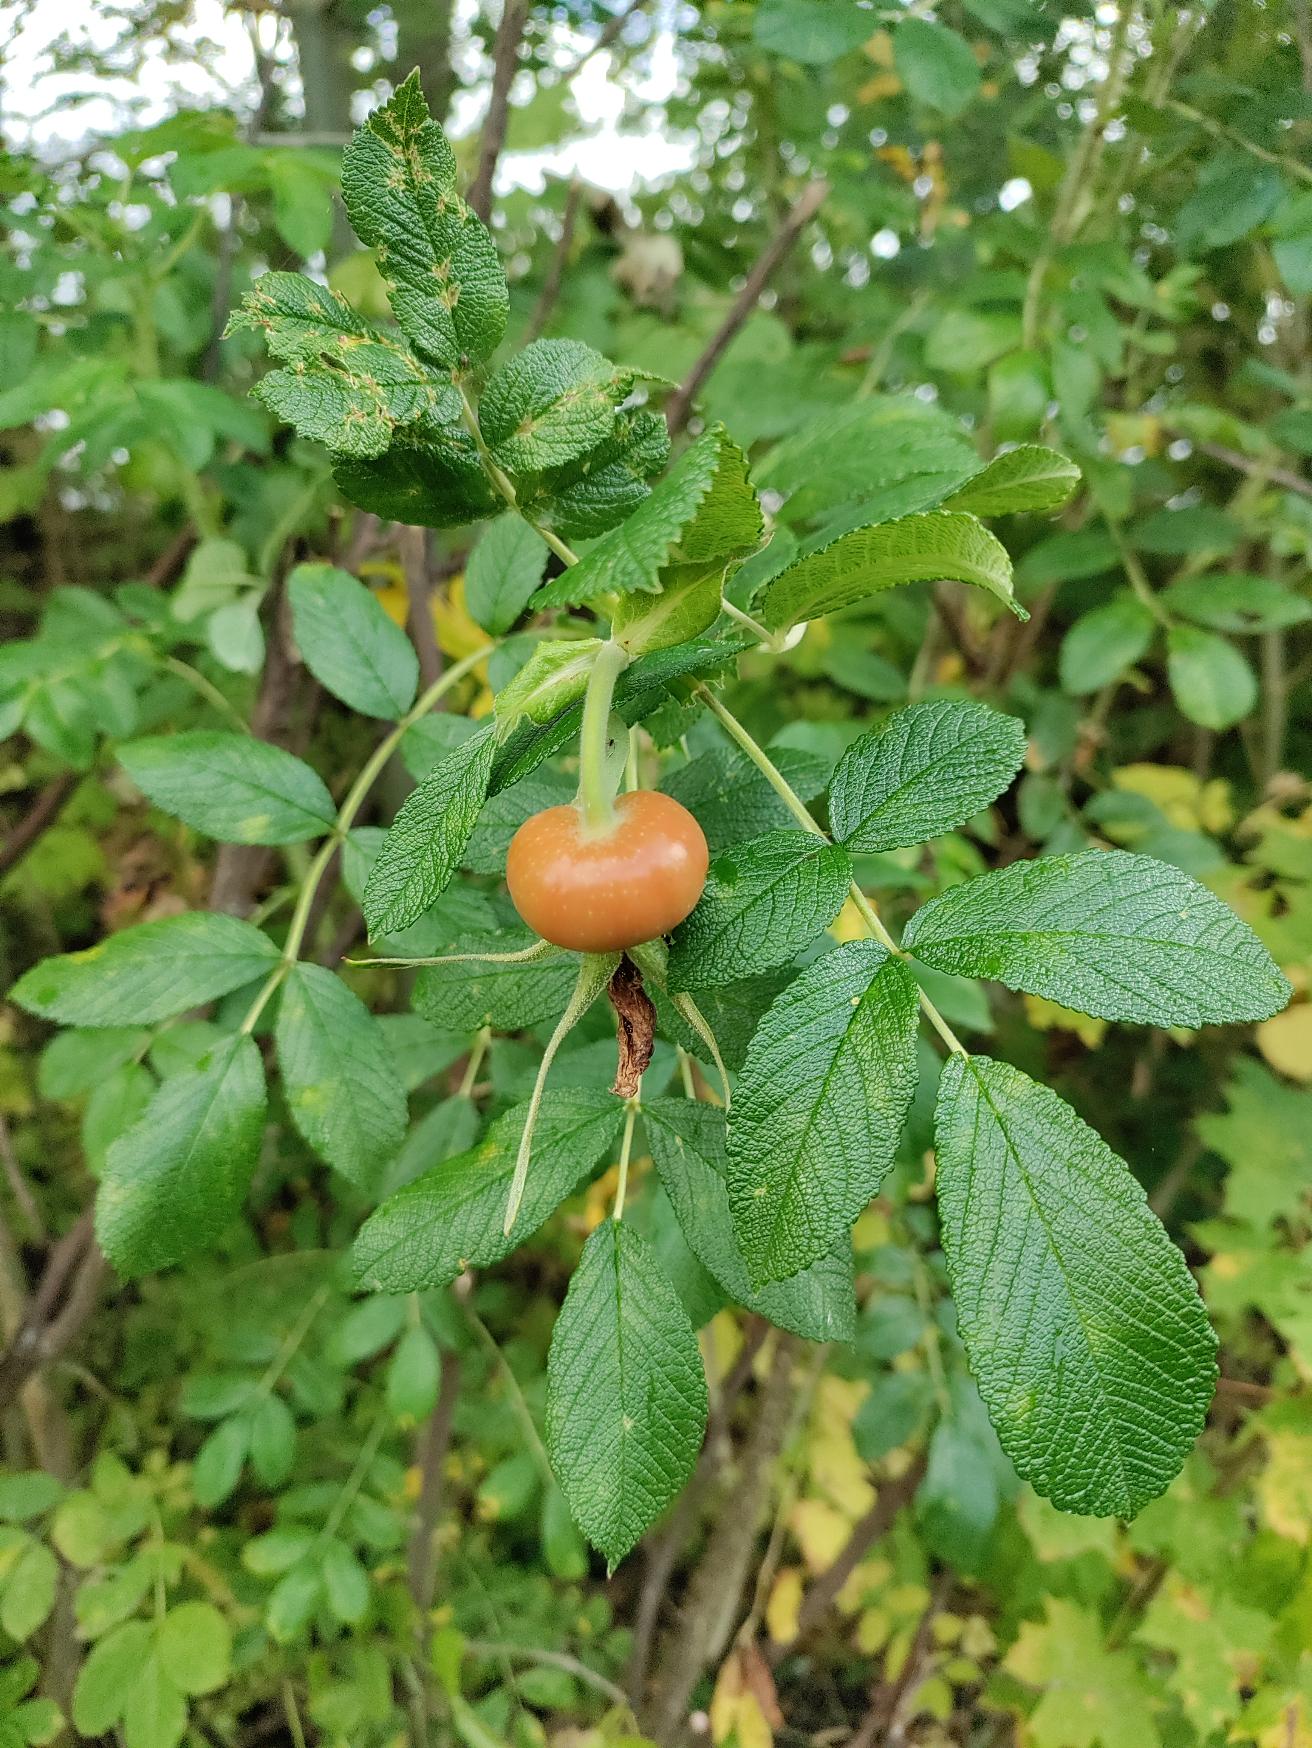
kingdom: Plantae
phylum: Tracheophyta
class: Magnoliopsida
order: Rosales
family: Rosaceae
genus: Rosa
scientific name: Rosa rugosa
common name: Rynket rose
